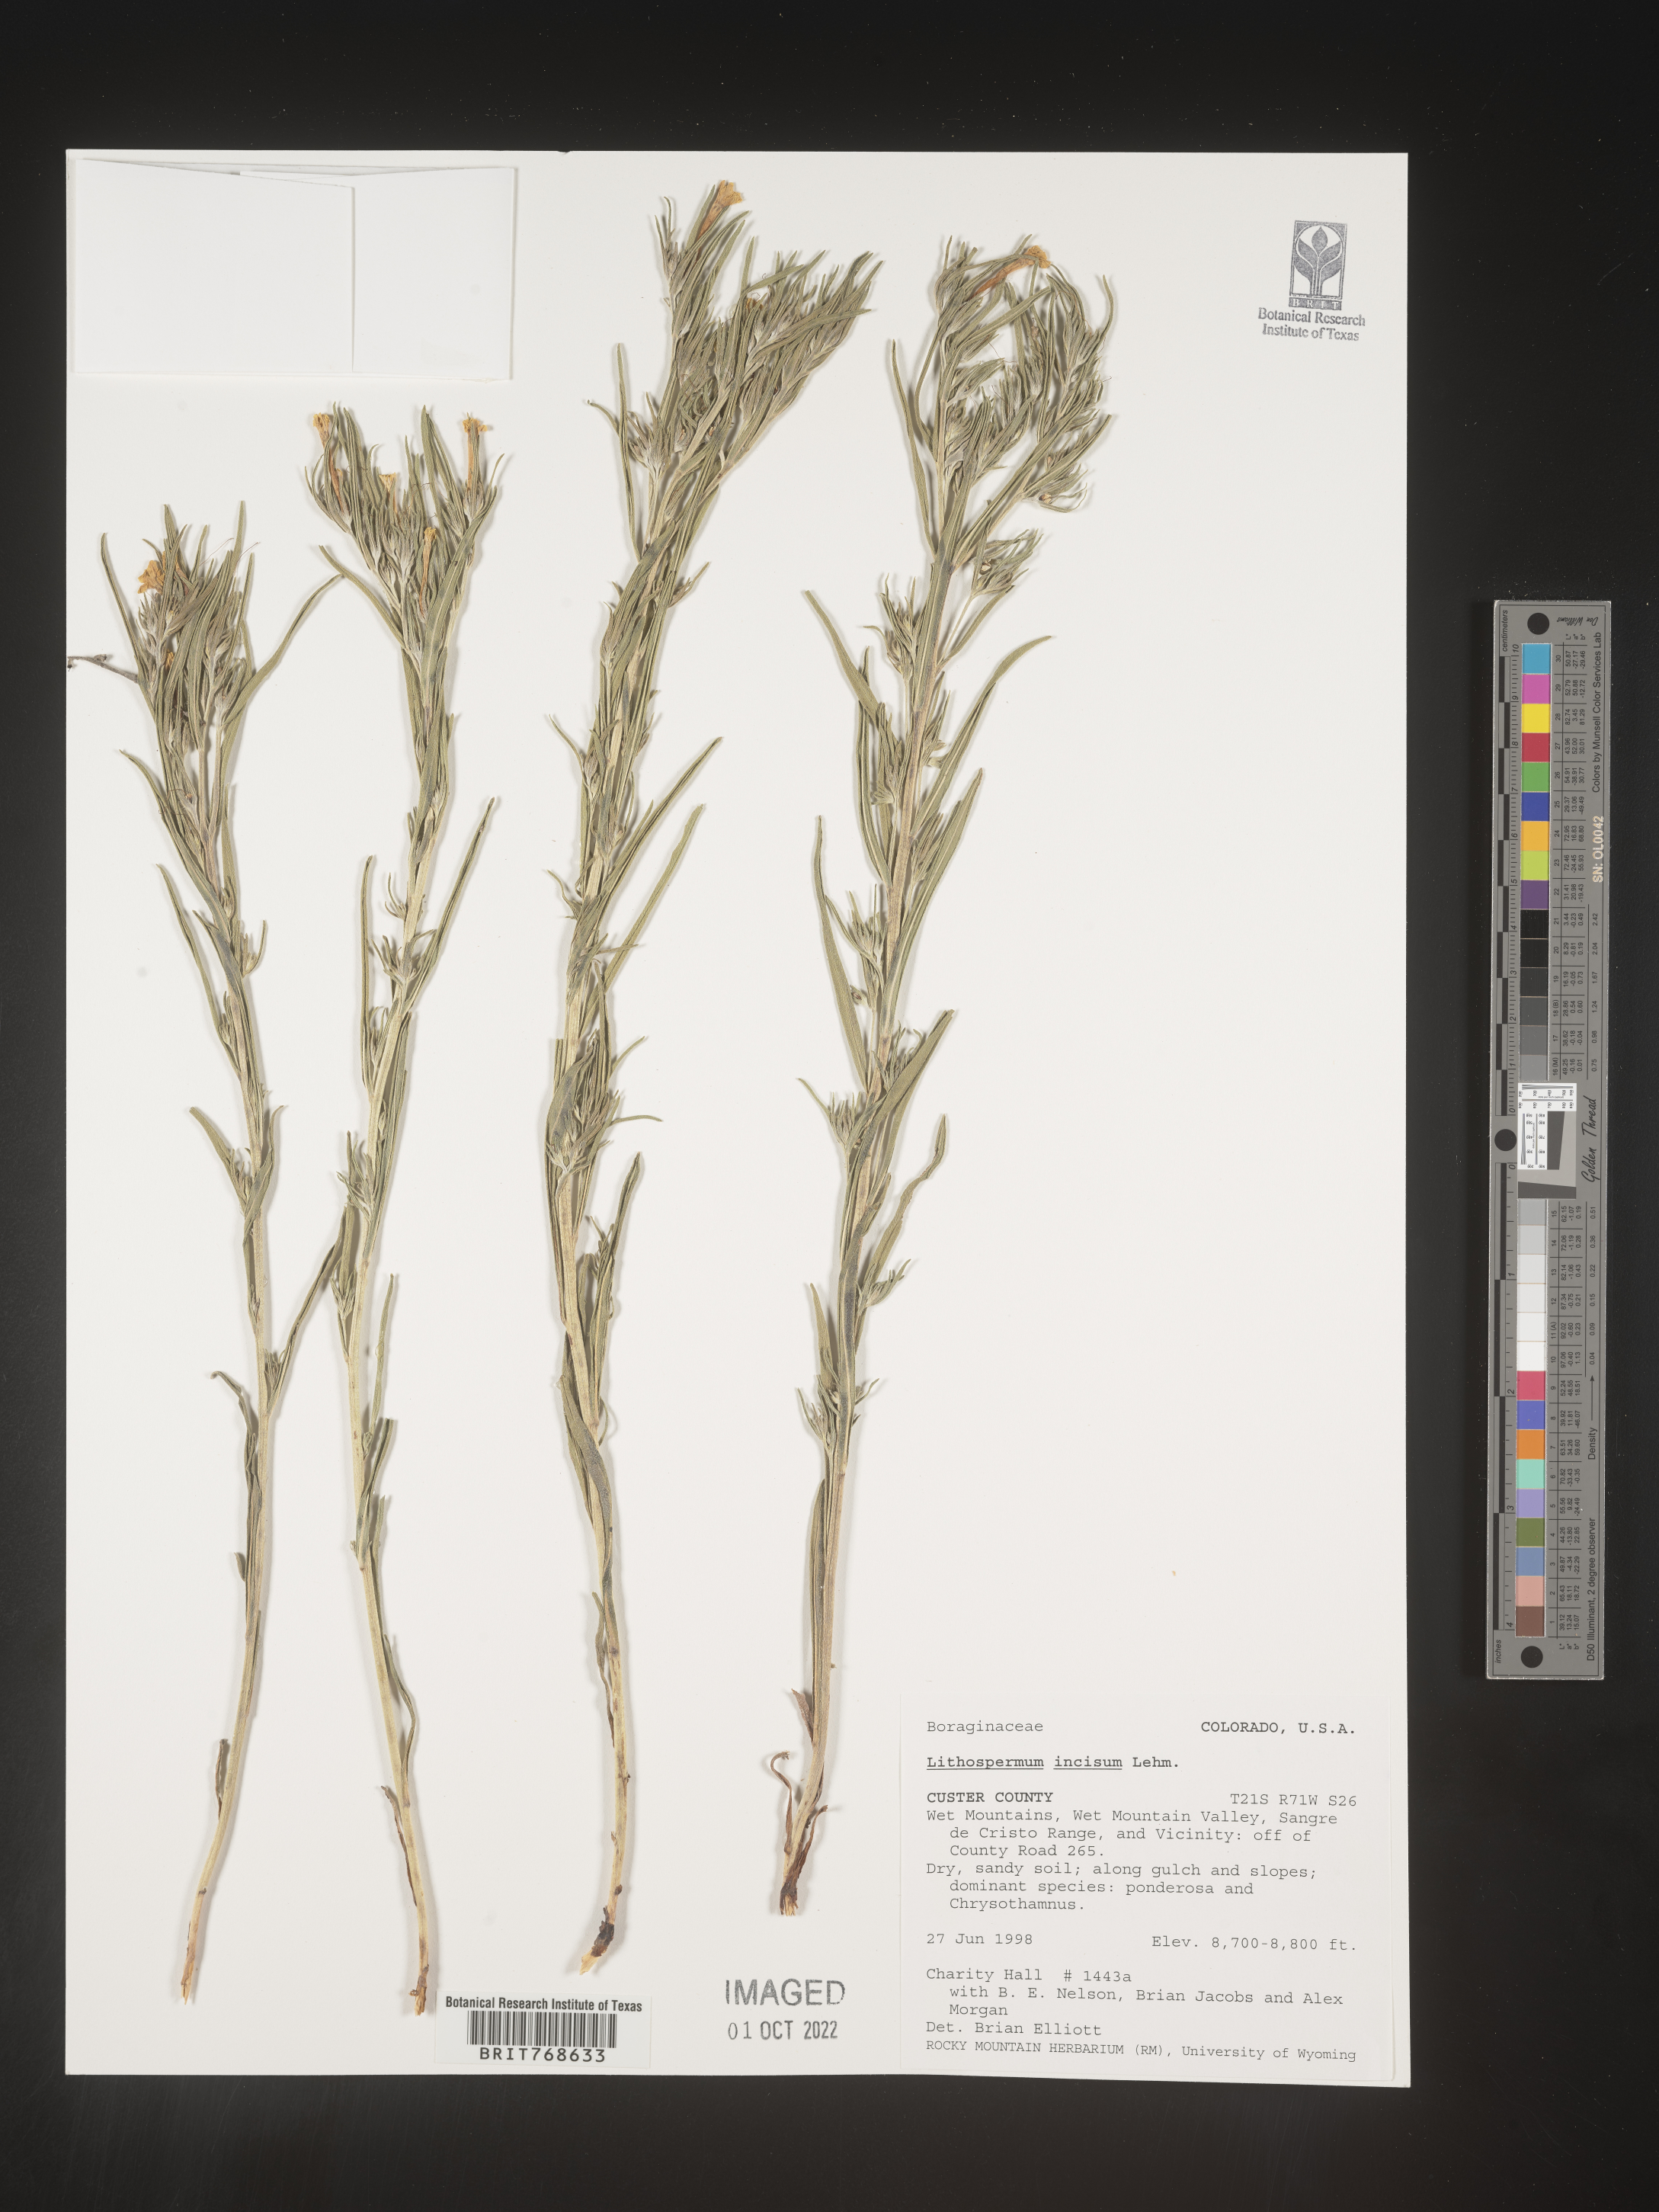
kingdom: Plantae
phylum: Tracheophyta
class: Magnoliopsida
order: Boraginales
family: Boraginaceae
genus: Lithospermum
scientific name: Lithospermum incisum
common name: Fringed gromwell
